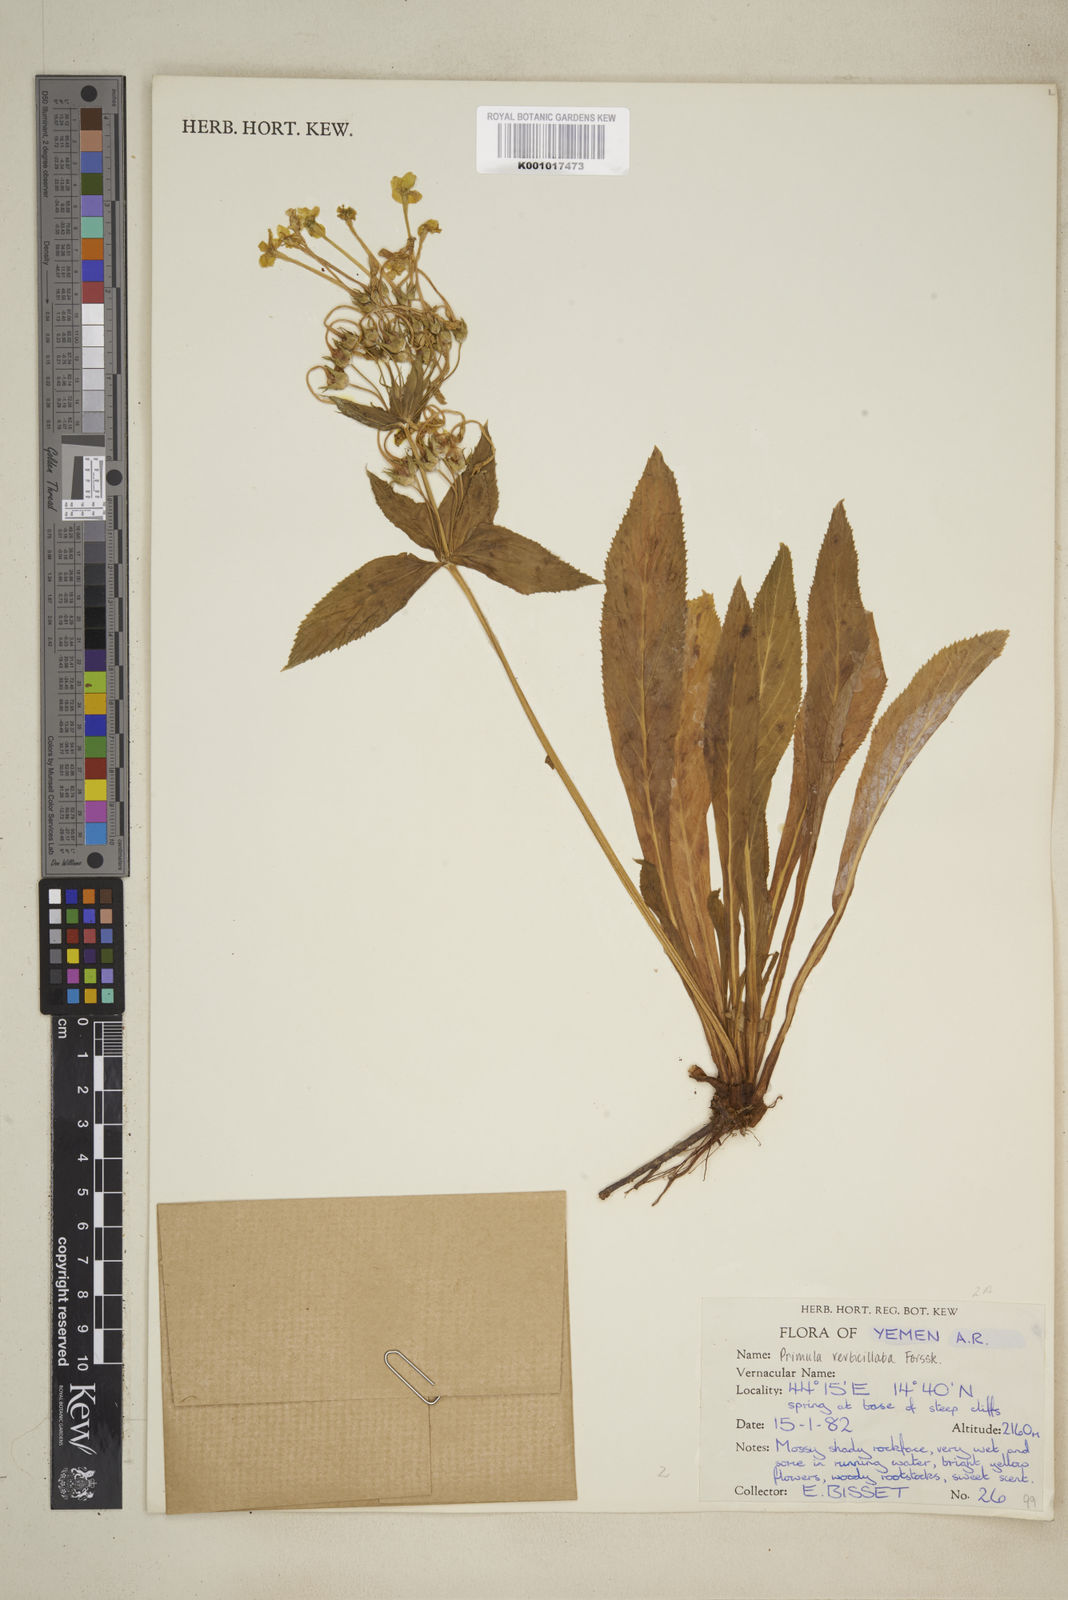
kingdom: Plantae
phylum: Tracheophyta
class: Magnoliopsida
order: Ericales
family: Primulaceae
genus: Evotrochis
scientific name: Evotrochis verticillata
